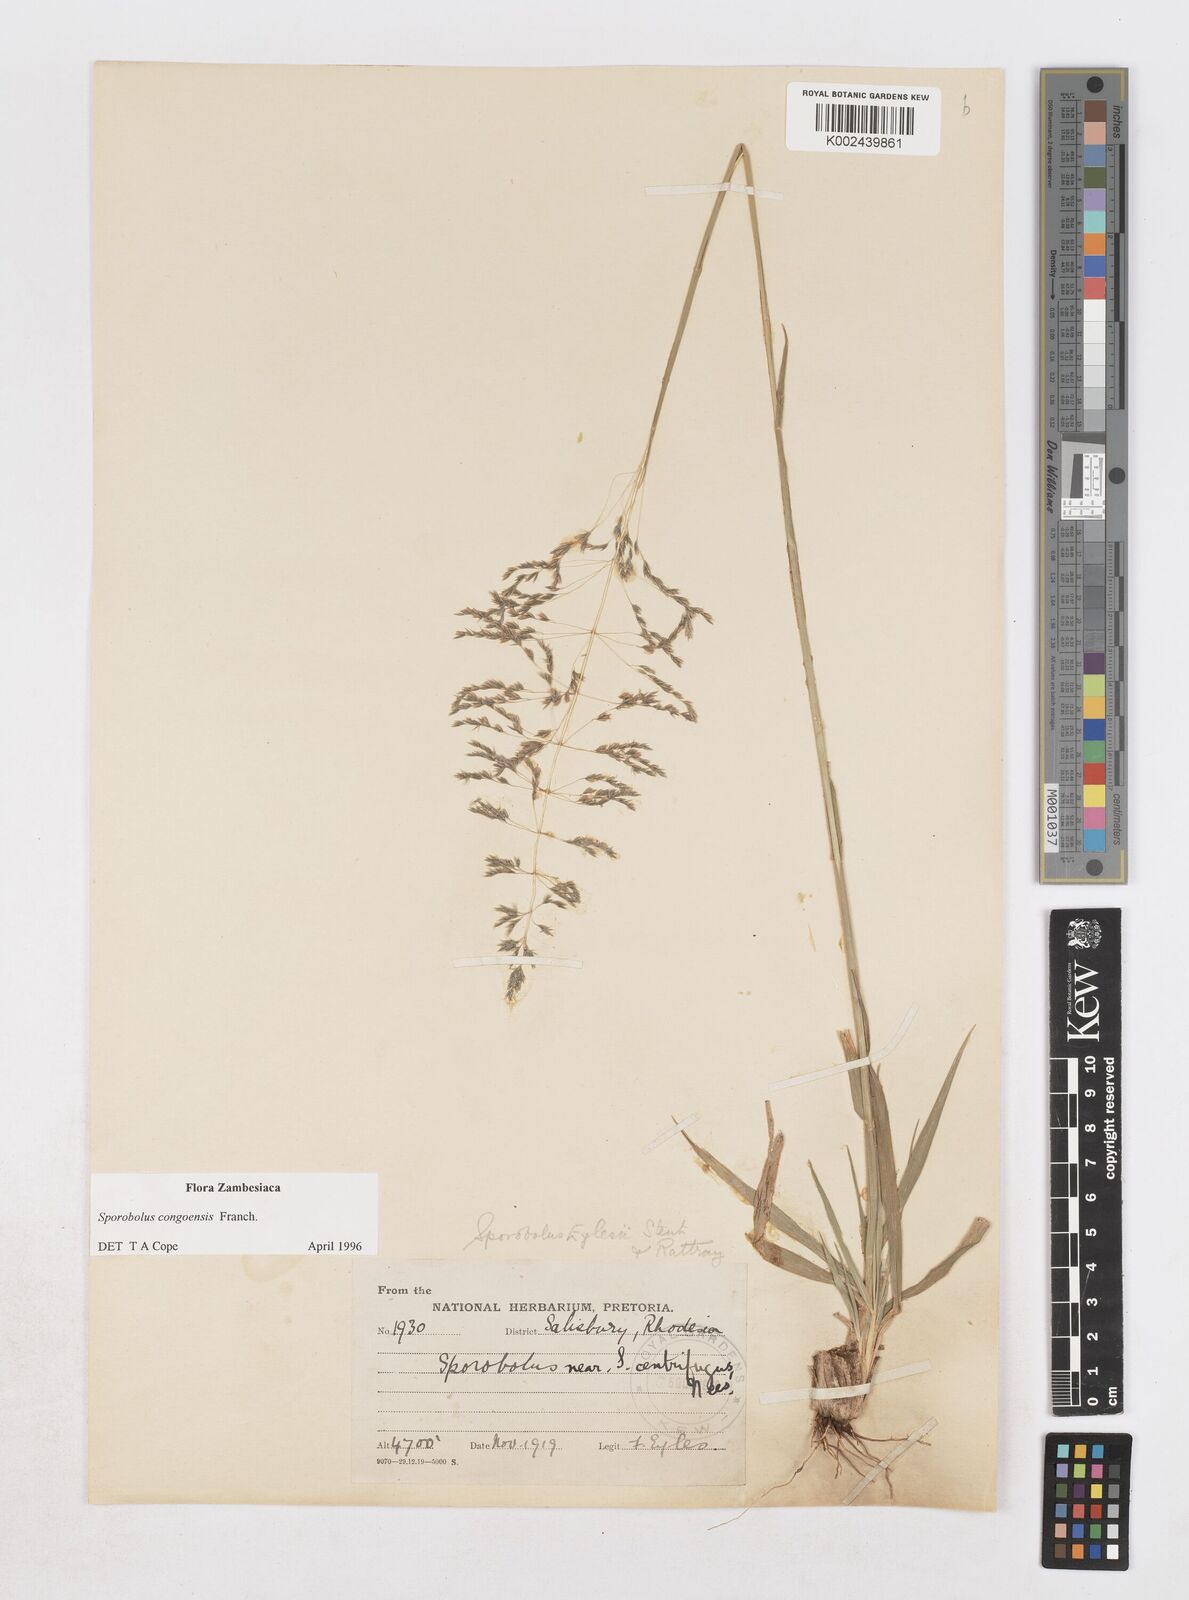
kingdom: Plantae
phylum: Tracheophyta
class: Liliopsida
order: Poales
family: Poaceae
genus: Sporobolus
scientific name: Sporobolus congoensis
